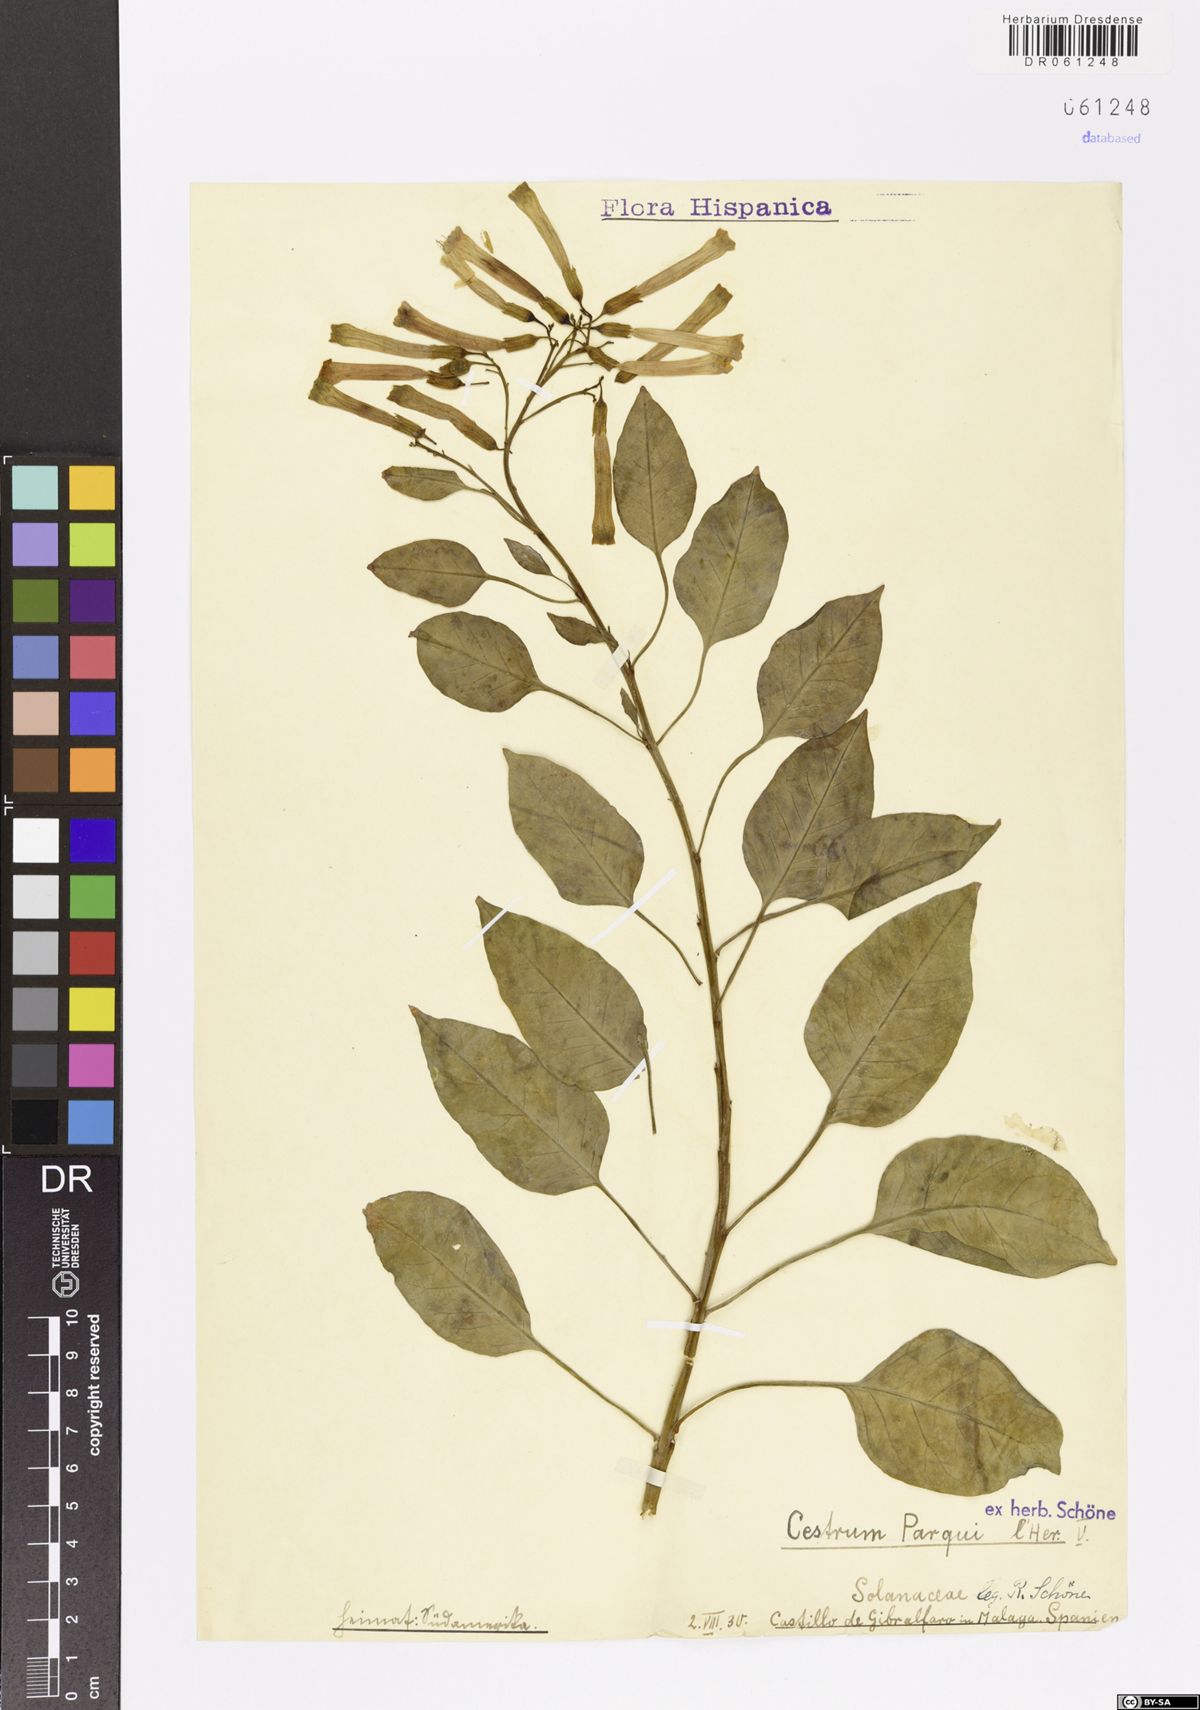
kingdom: Plantae
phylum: Tracheophyta
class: Magnoliopsida
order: Solanales
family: Solanaceae
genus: Cestrum
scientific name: Cestrum thyrsoideum
